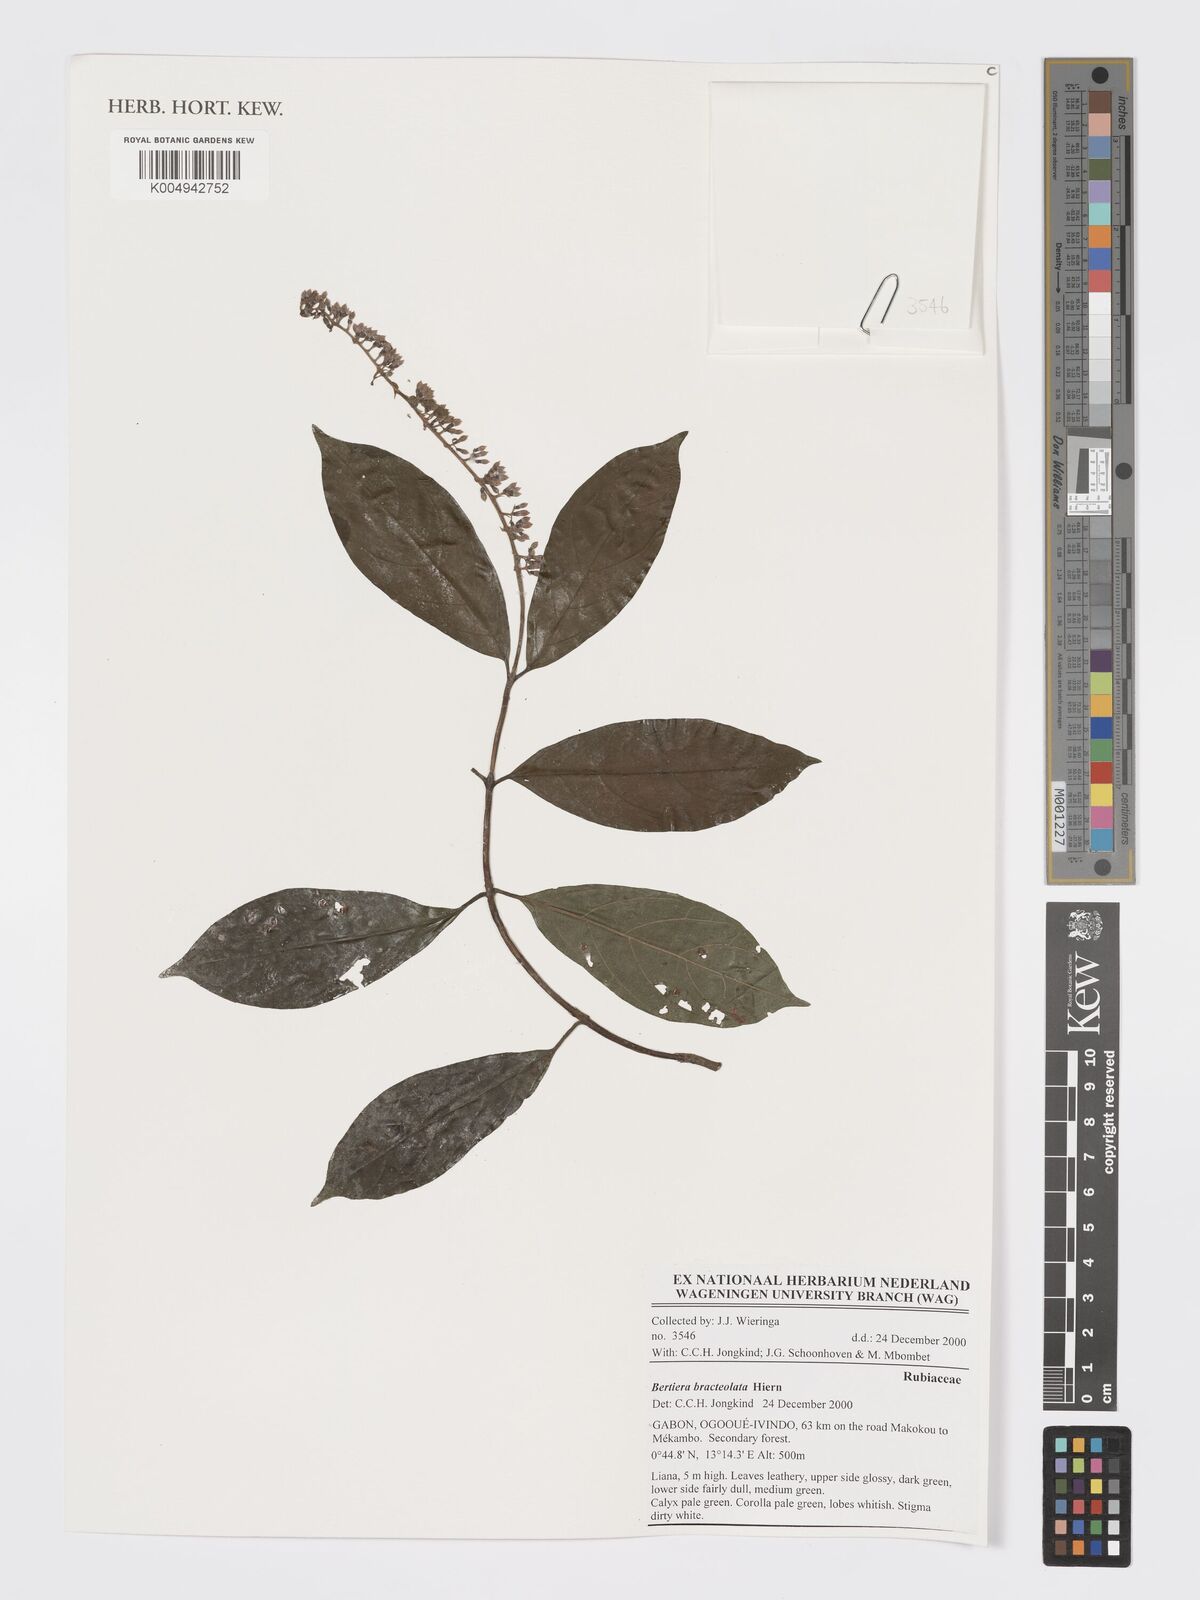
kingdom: Plantae
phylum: Tracheophyta
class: Magnoliopsida
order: Gentianales
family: Rubiaceae
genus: Bertiera
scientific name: Bertiera bracteolata
